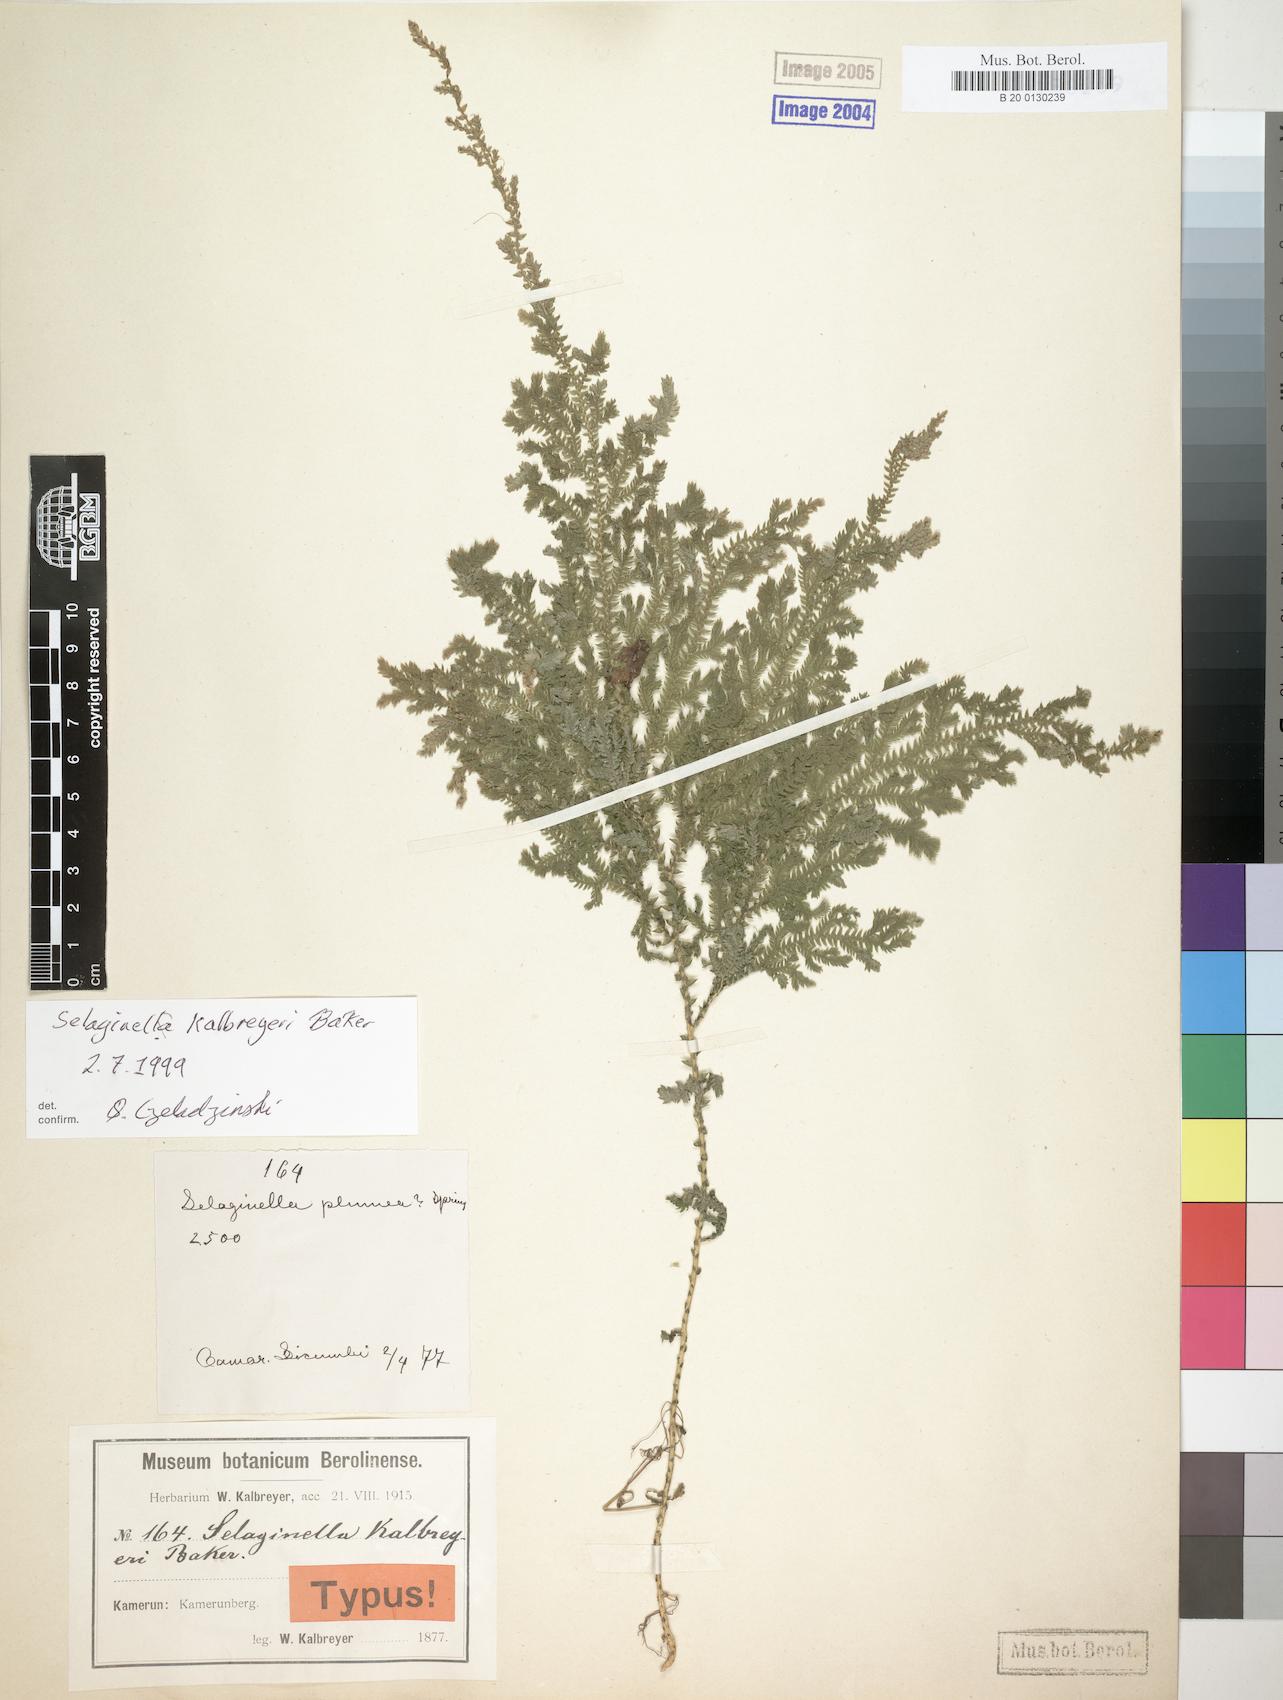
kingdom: Plantae
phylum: Tracheophyta
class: Lycopodiopsida
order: Selaginellales
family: Selaginellaceae
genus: Selaginella
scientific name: Selaginella kalbreyeri
